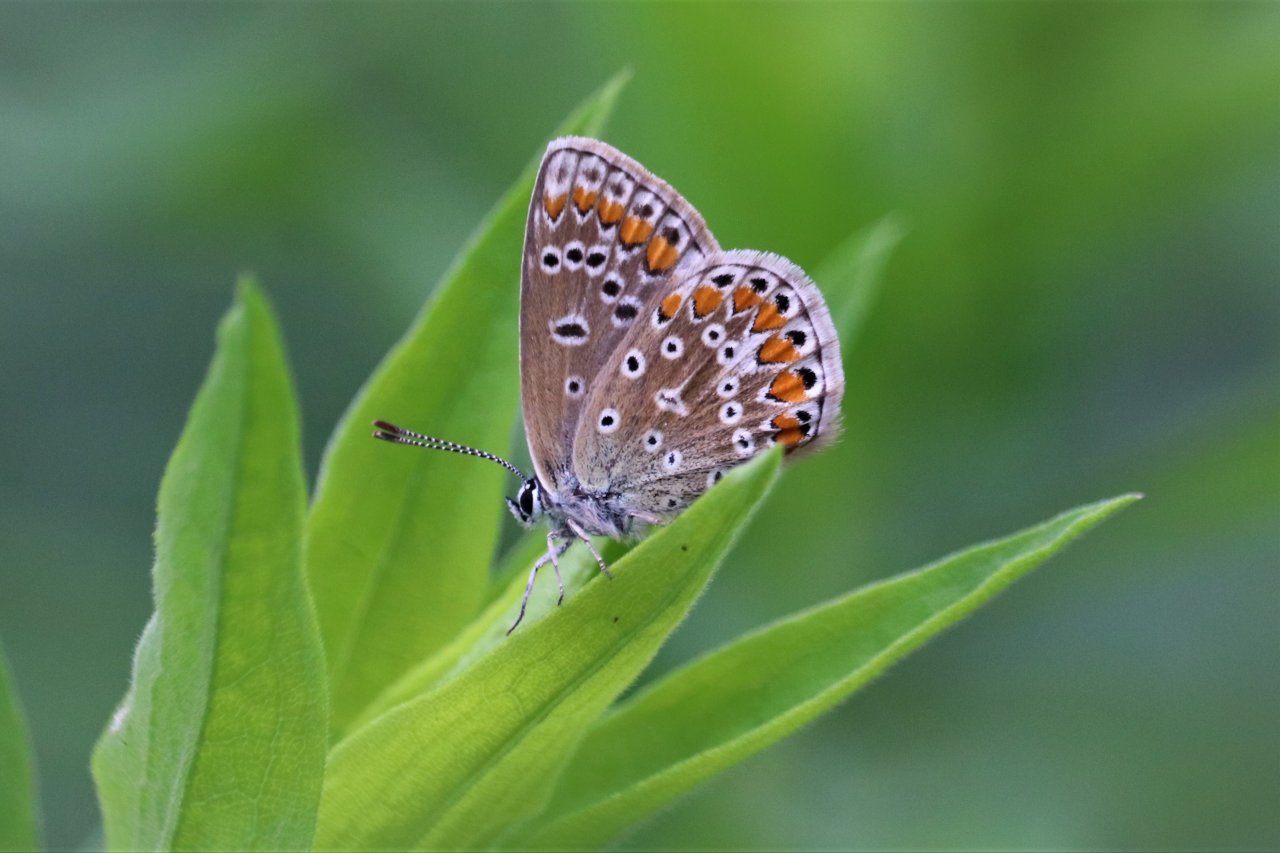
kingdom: Animalia
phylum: Arthropoda
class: Insecta
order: Lepidoptera
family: Lycaenidae
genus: Polyommatus
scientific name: Polyommatus icarus
